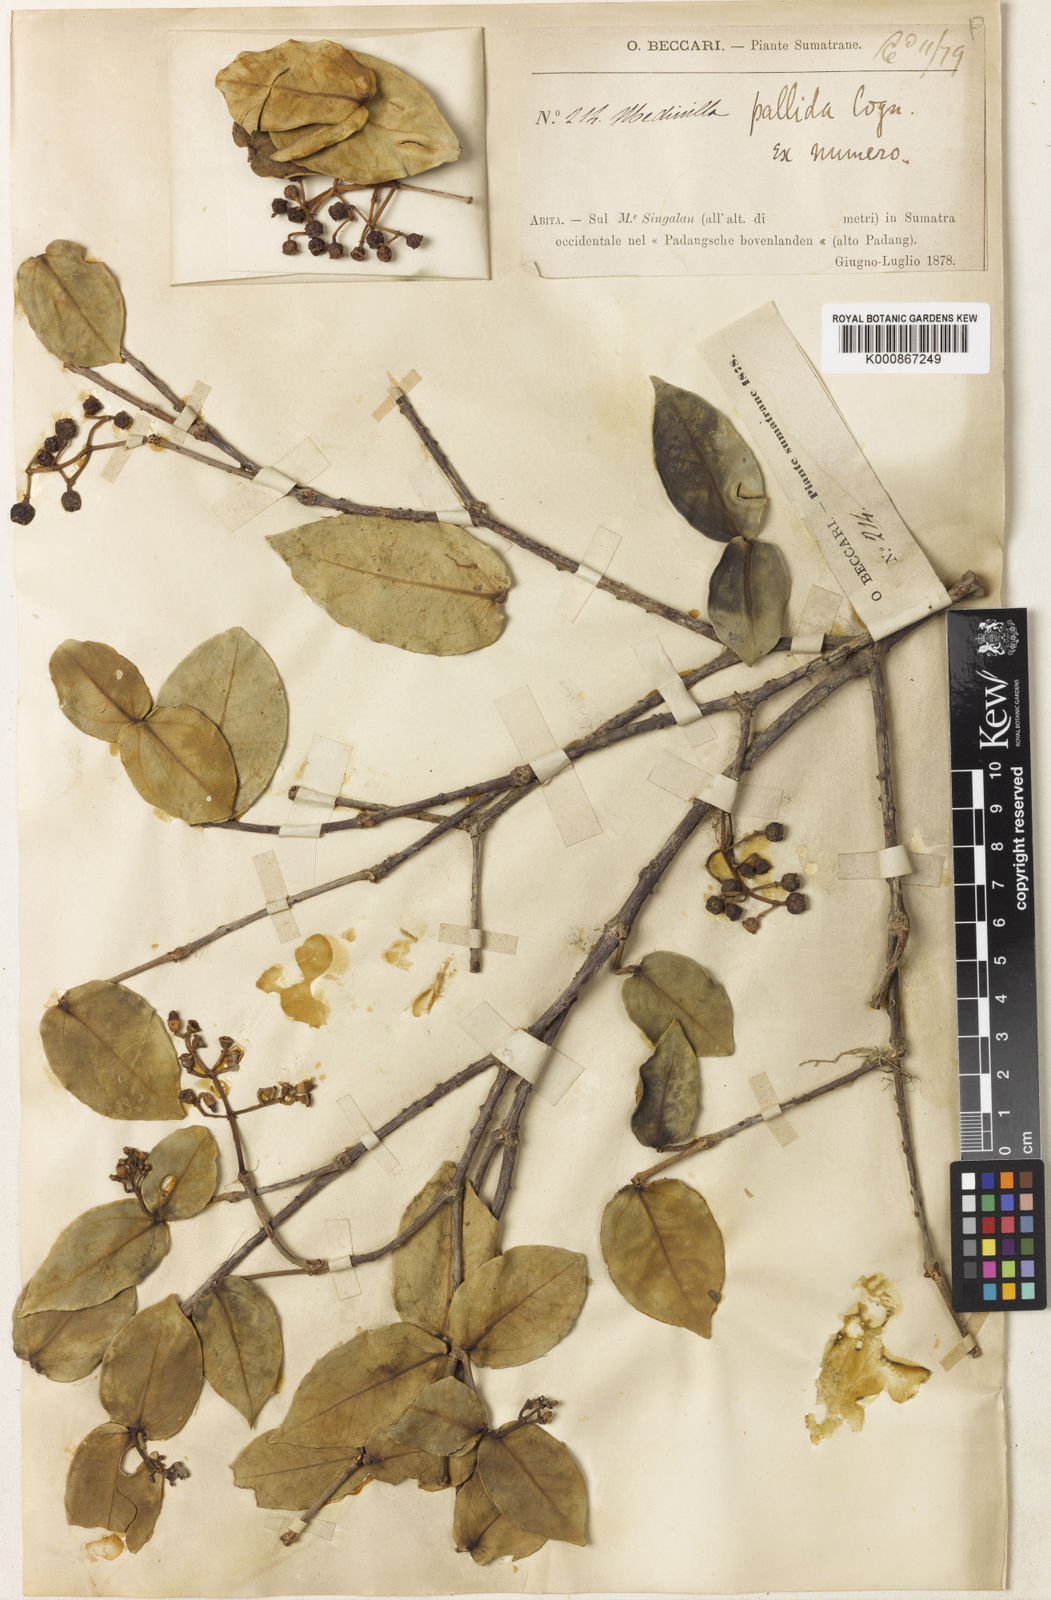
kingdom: Plantae
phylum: Tracheophyta
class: Magnoliopsida
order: Myrtales
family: Melastomataceae
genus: Medinilla
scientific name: Medinilla hypericifolia
